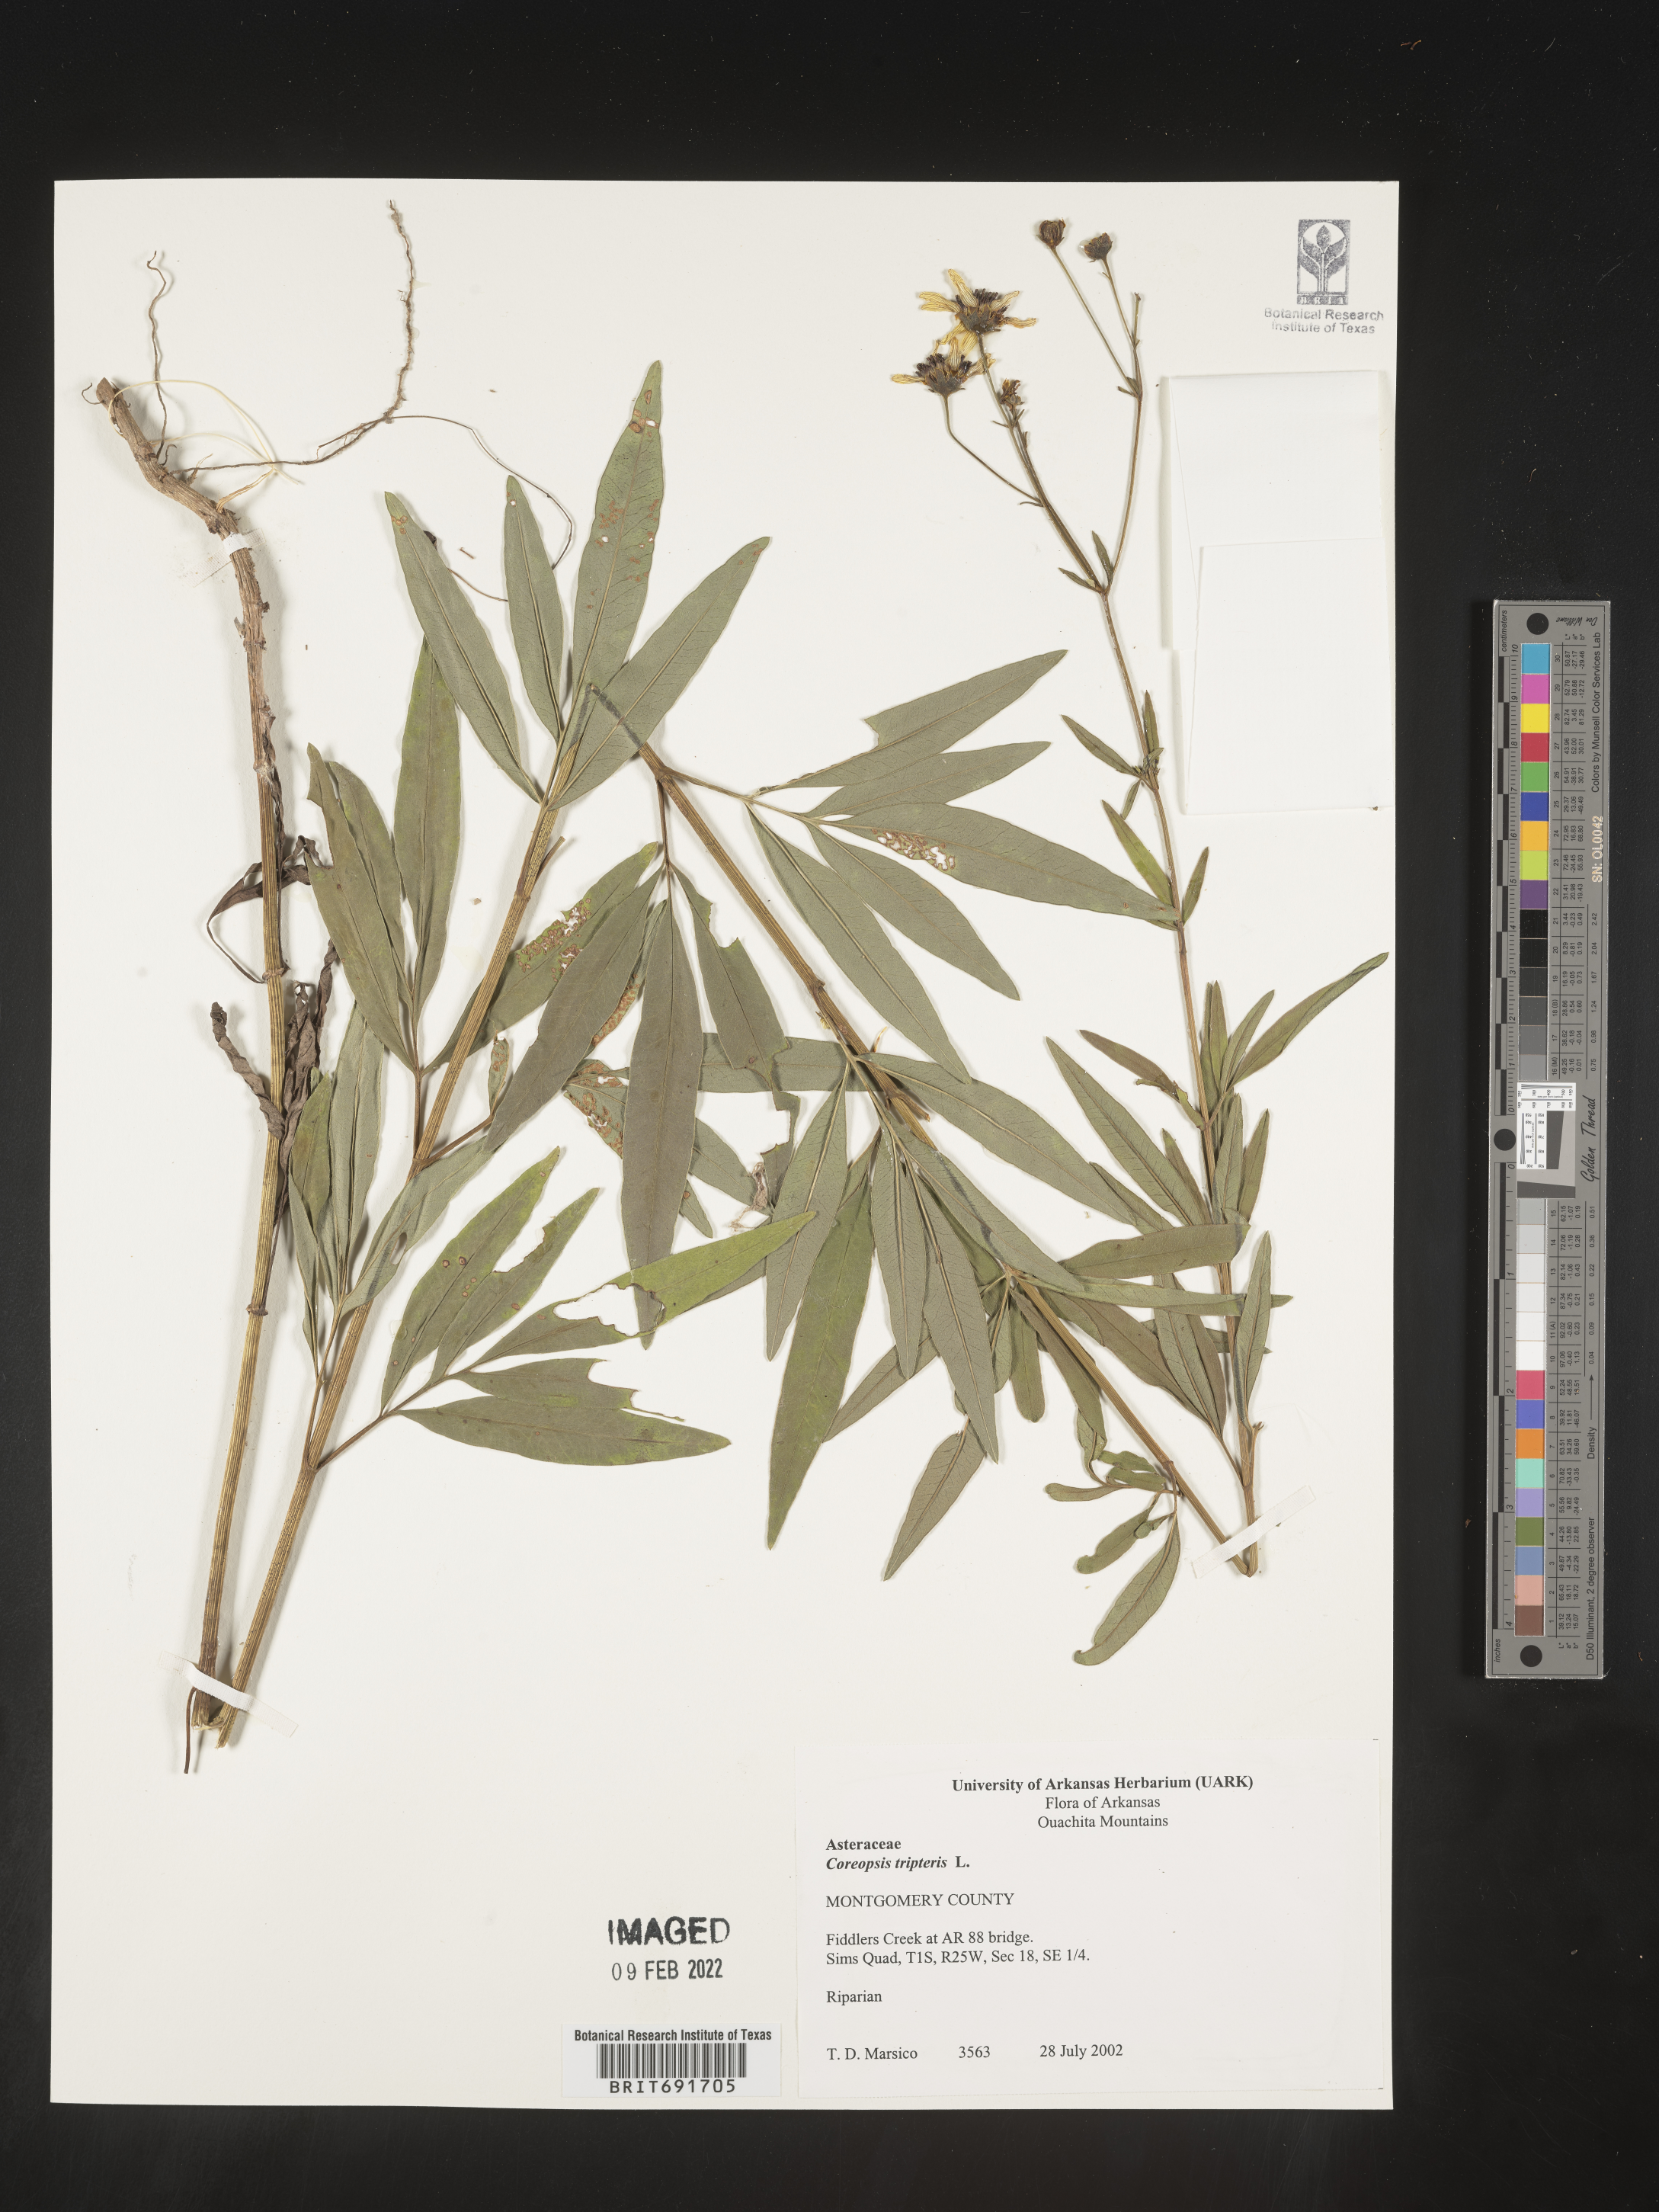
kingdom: Plantae
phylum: Tracheophyta
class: Magnoliopsida
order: Asterales
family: Asteraceae
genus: Coreopsis
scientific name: Coreopsis tripteris
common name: Tall coreopsis
